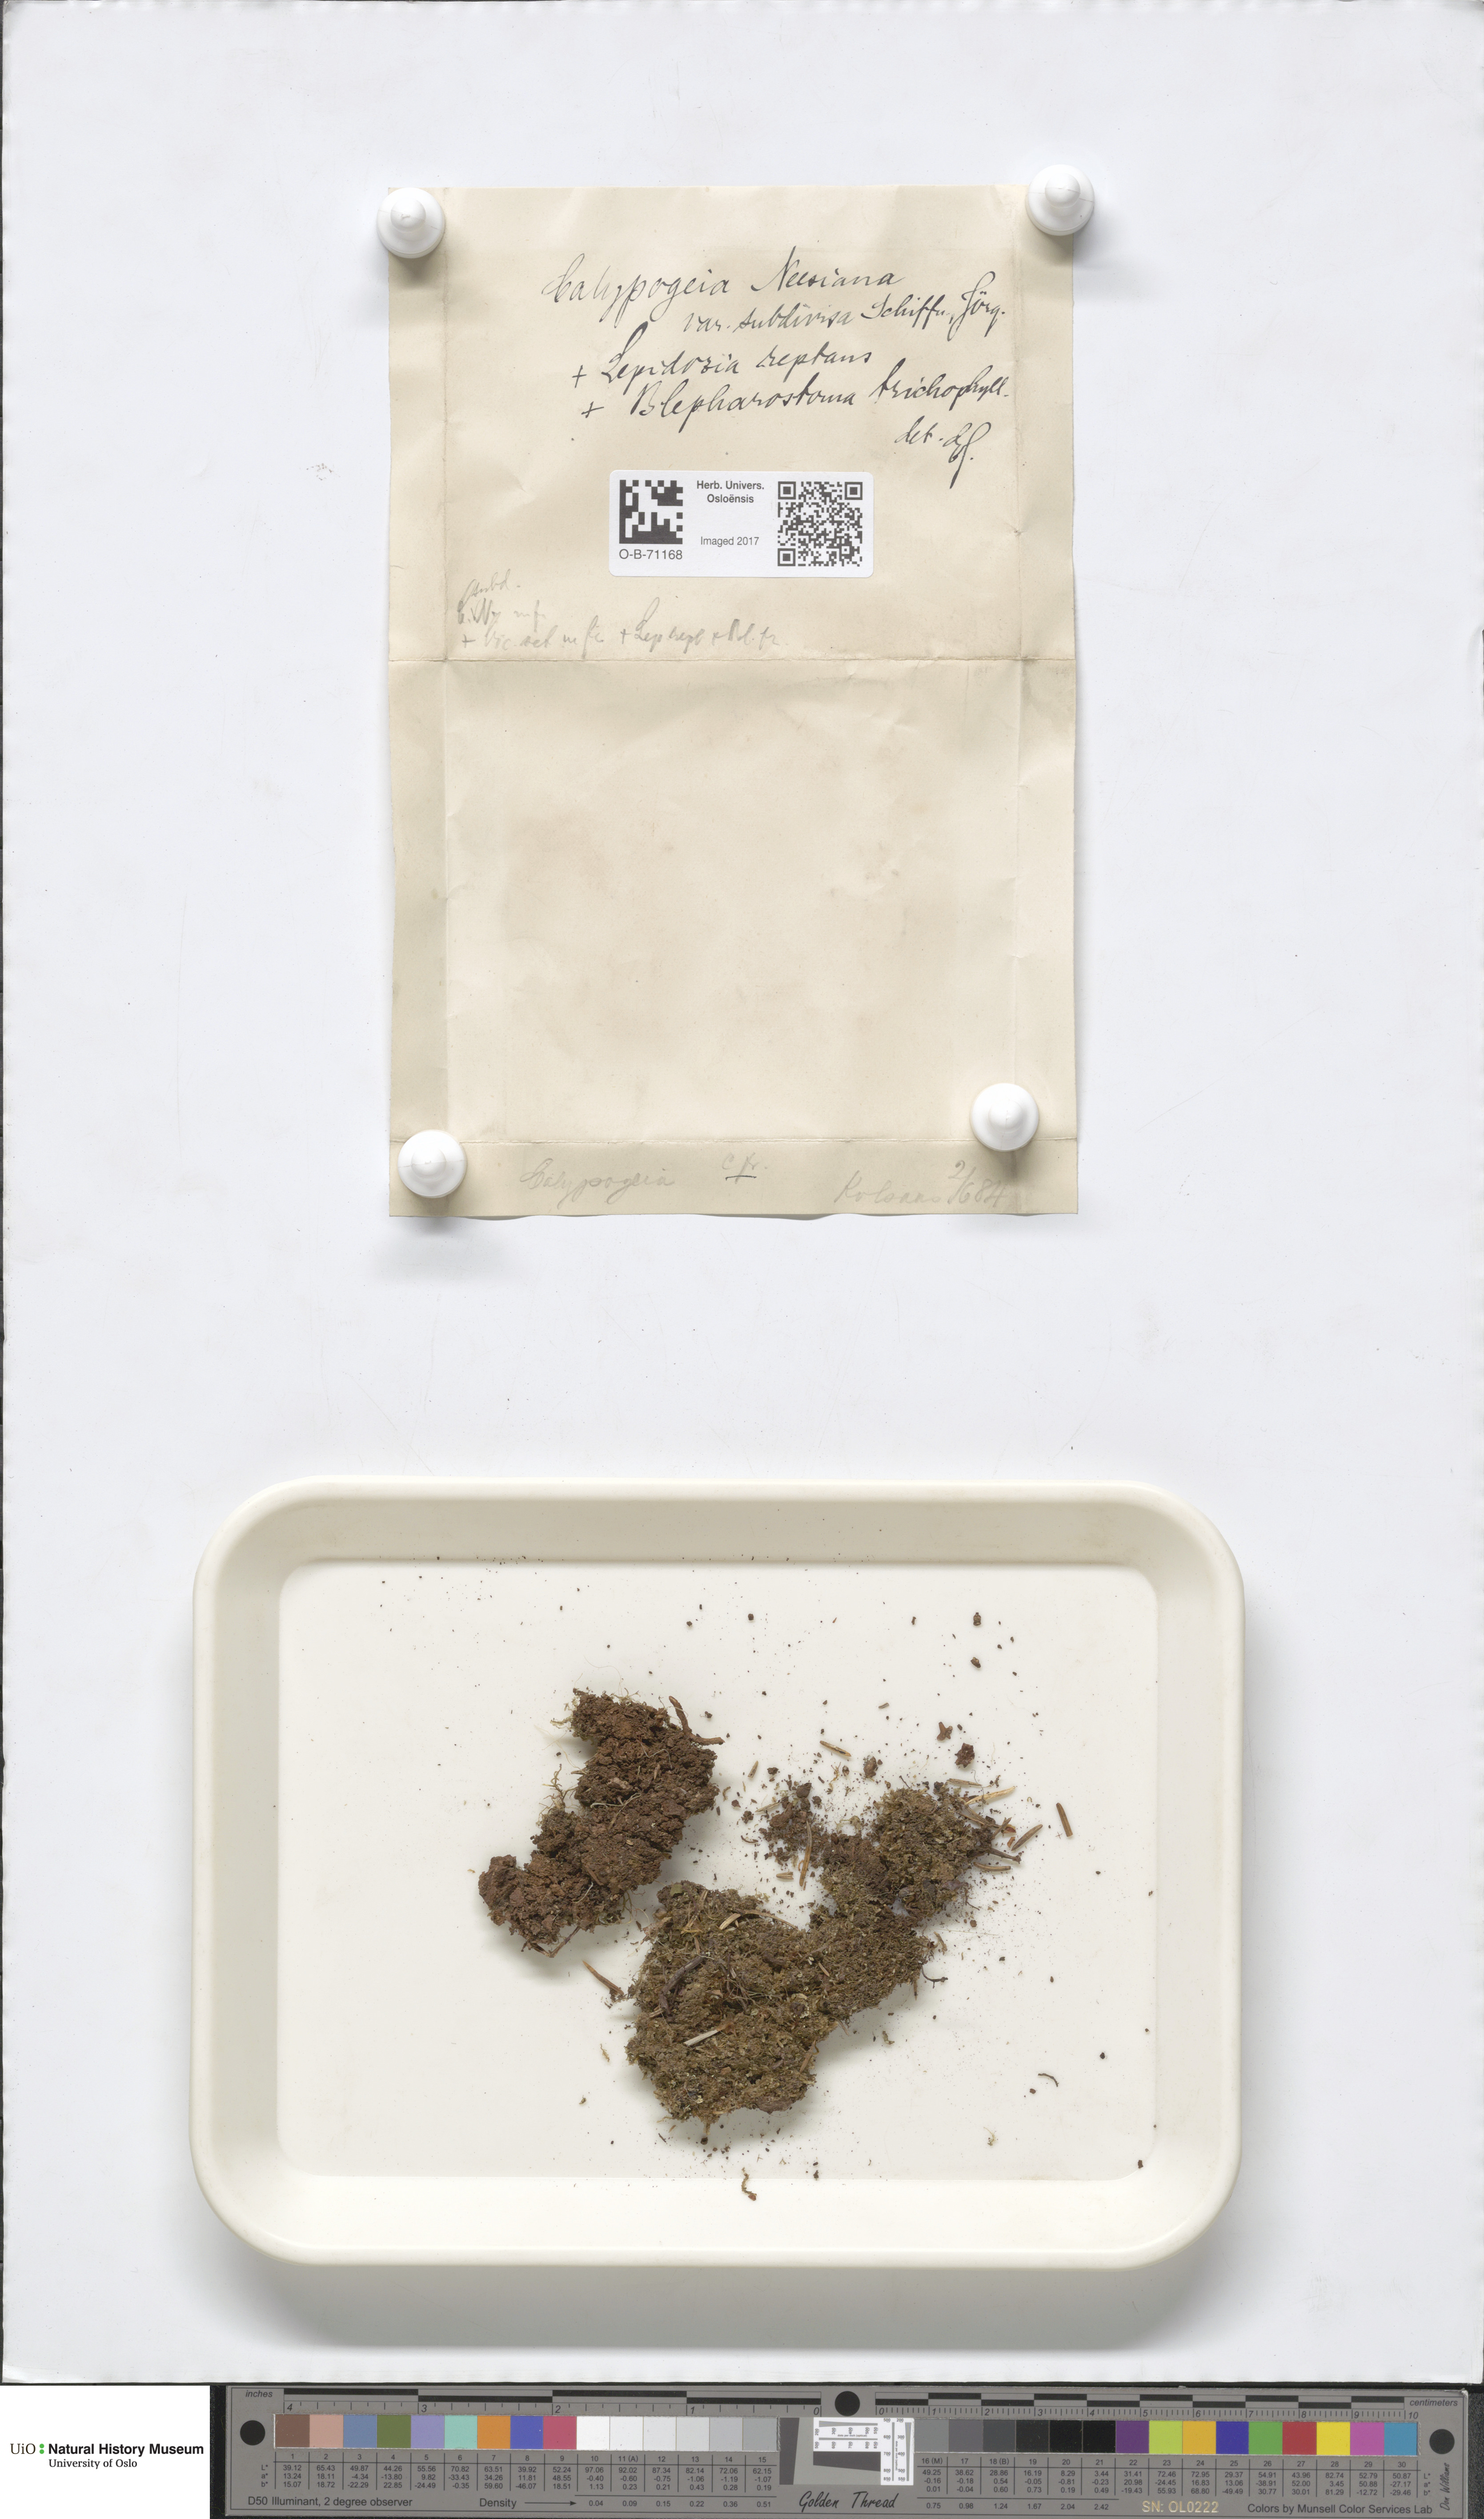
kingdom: Plantae
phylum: Marchantiophyta
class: Jungermanniopsida
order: Jungermanniales
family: Calypogeiaceae
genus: Calypogeia
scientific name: Calypogeia neesiana
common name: Nees  pouchwort
